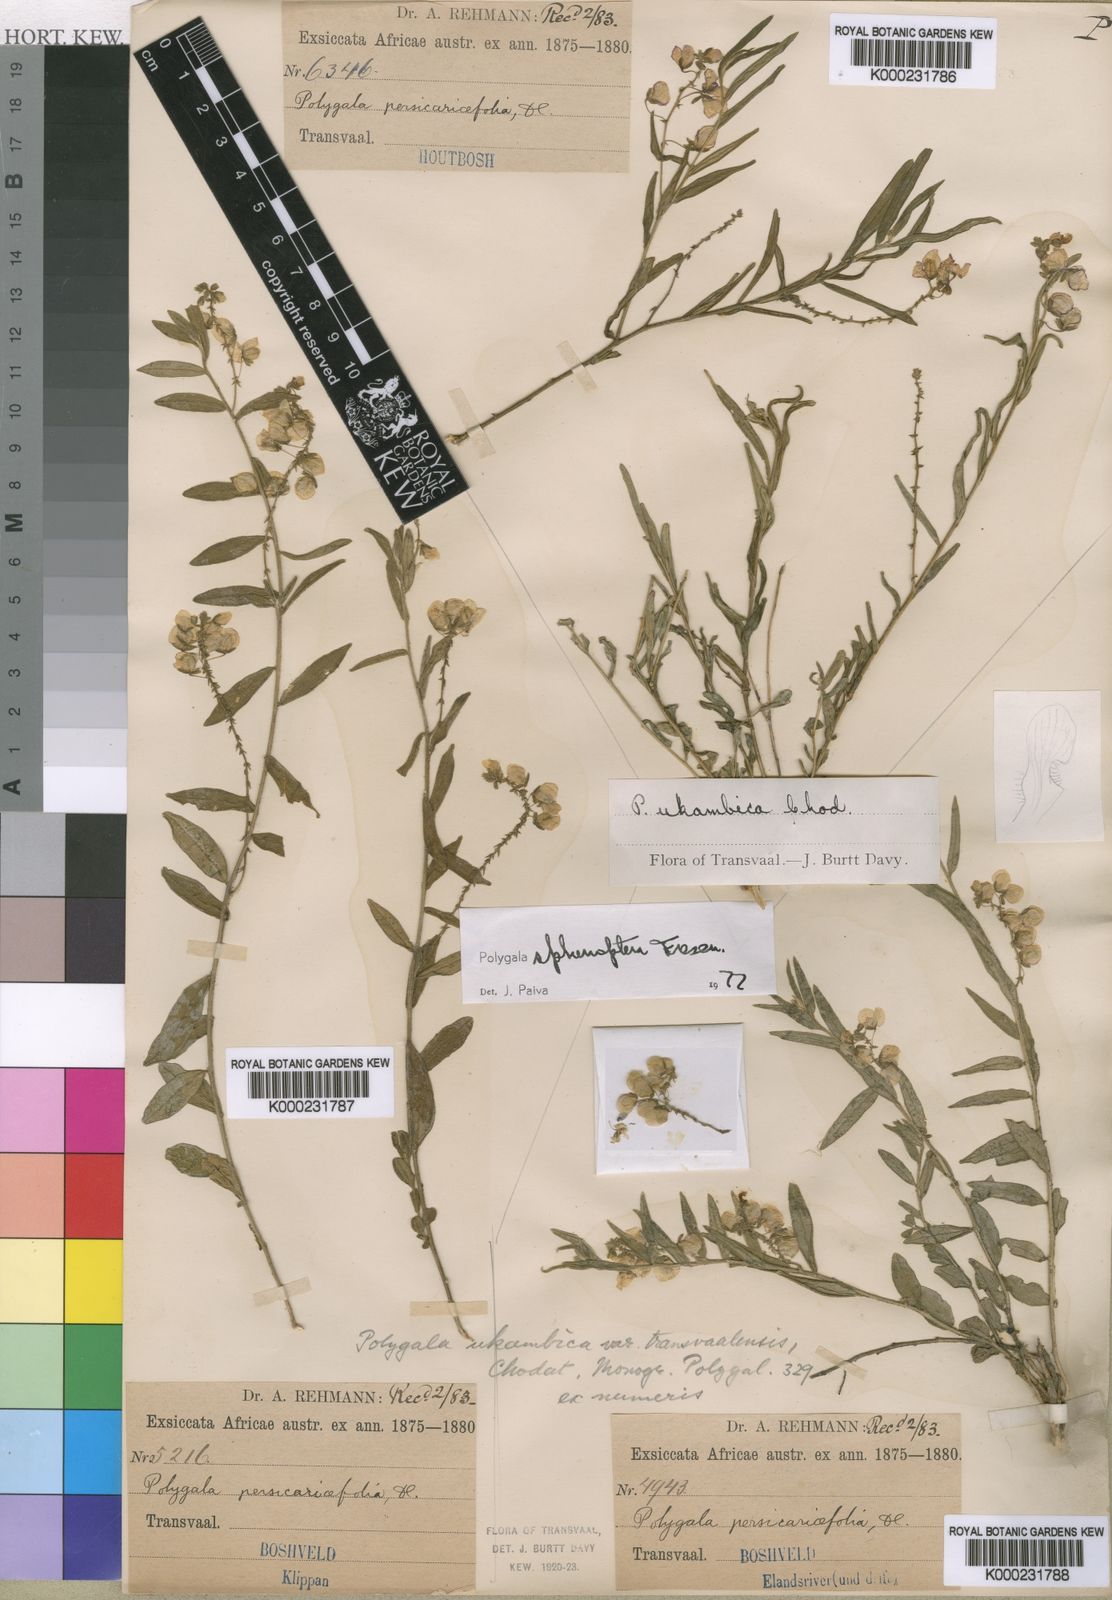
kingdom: Plantae
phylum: Tracheophyta
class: Magnoliopsida
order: Fabales
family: Polygalaceae
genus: Polygala
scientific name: Polygala sphenoptera
